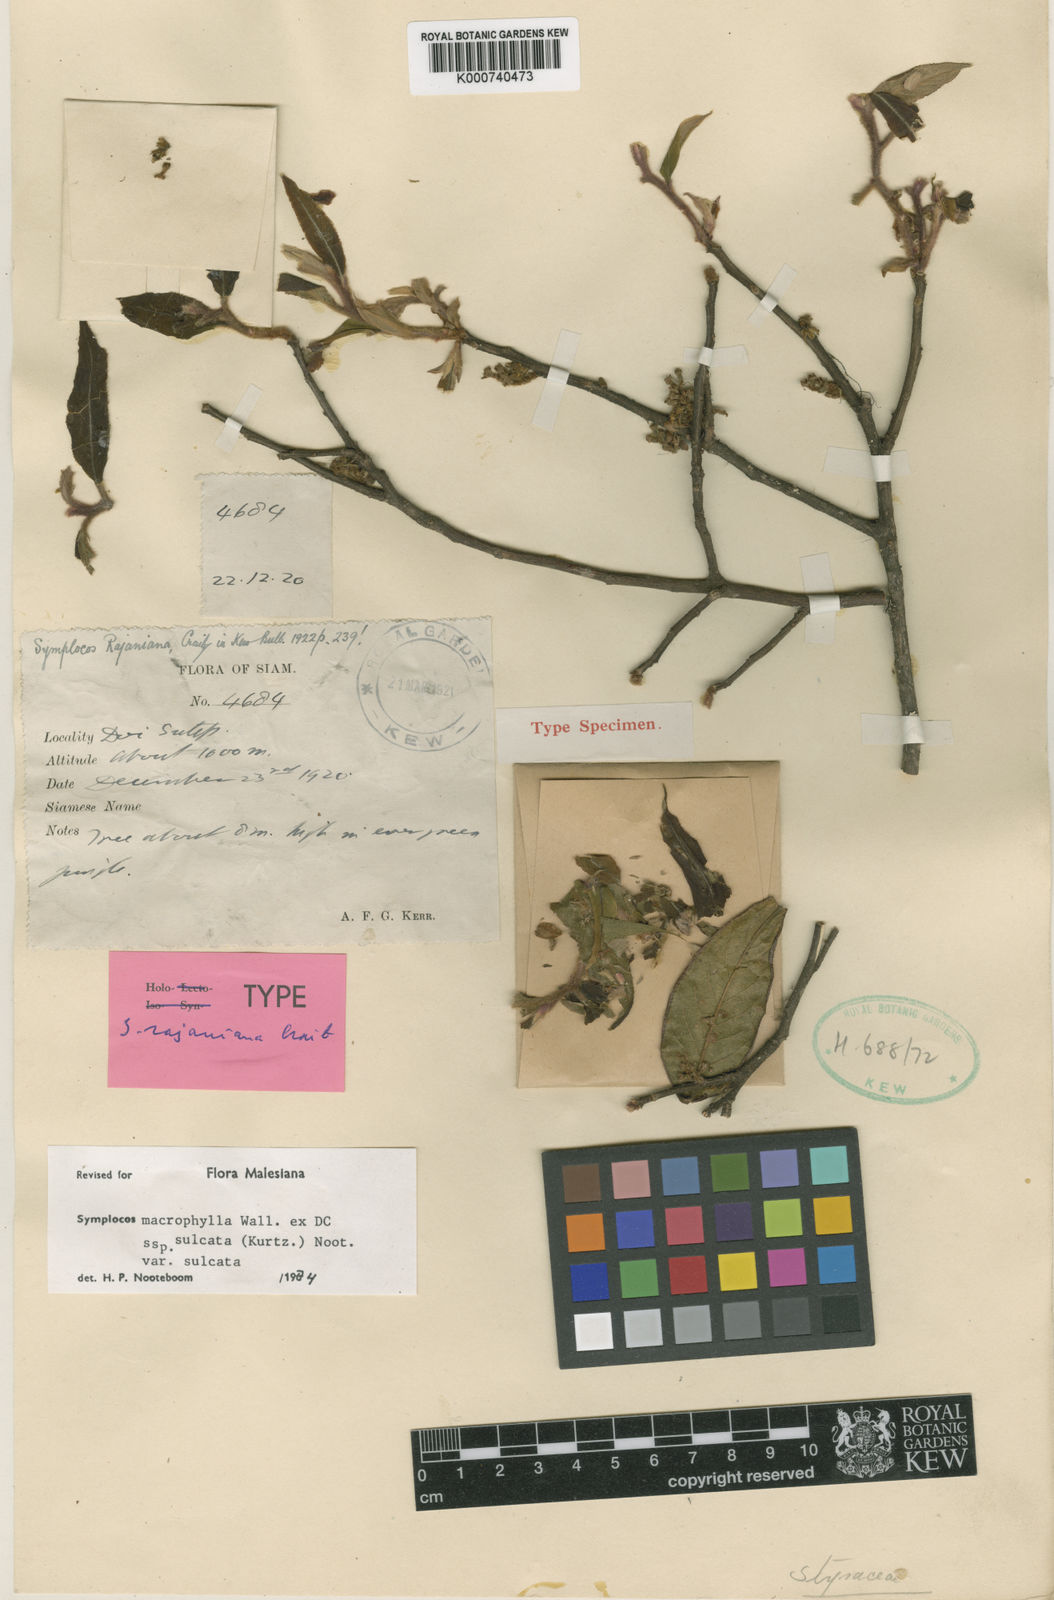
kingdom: Plantae
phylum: Tracheophyta
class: Magnoliopsida
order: Ericales
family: Symplocaceae
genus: Symplocos
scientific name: Symplocos sulcata
